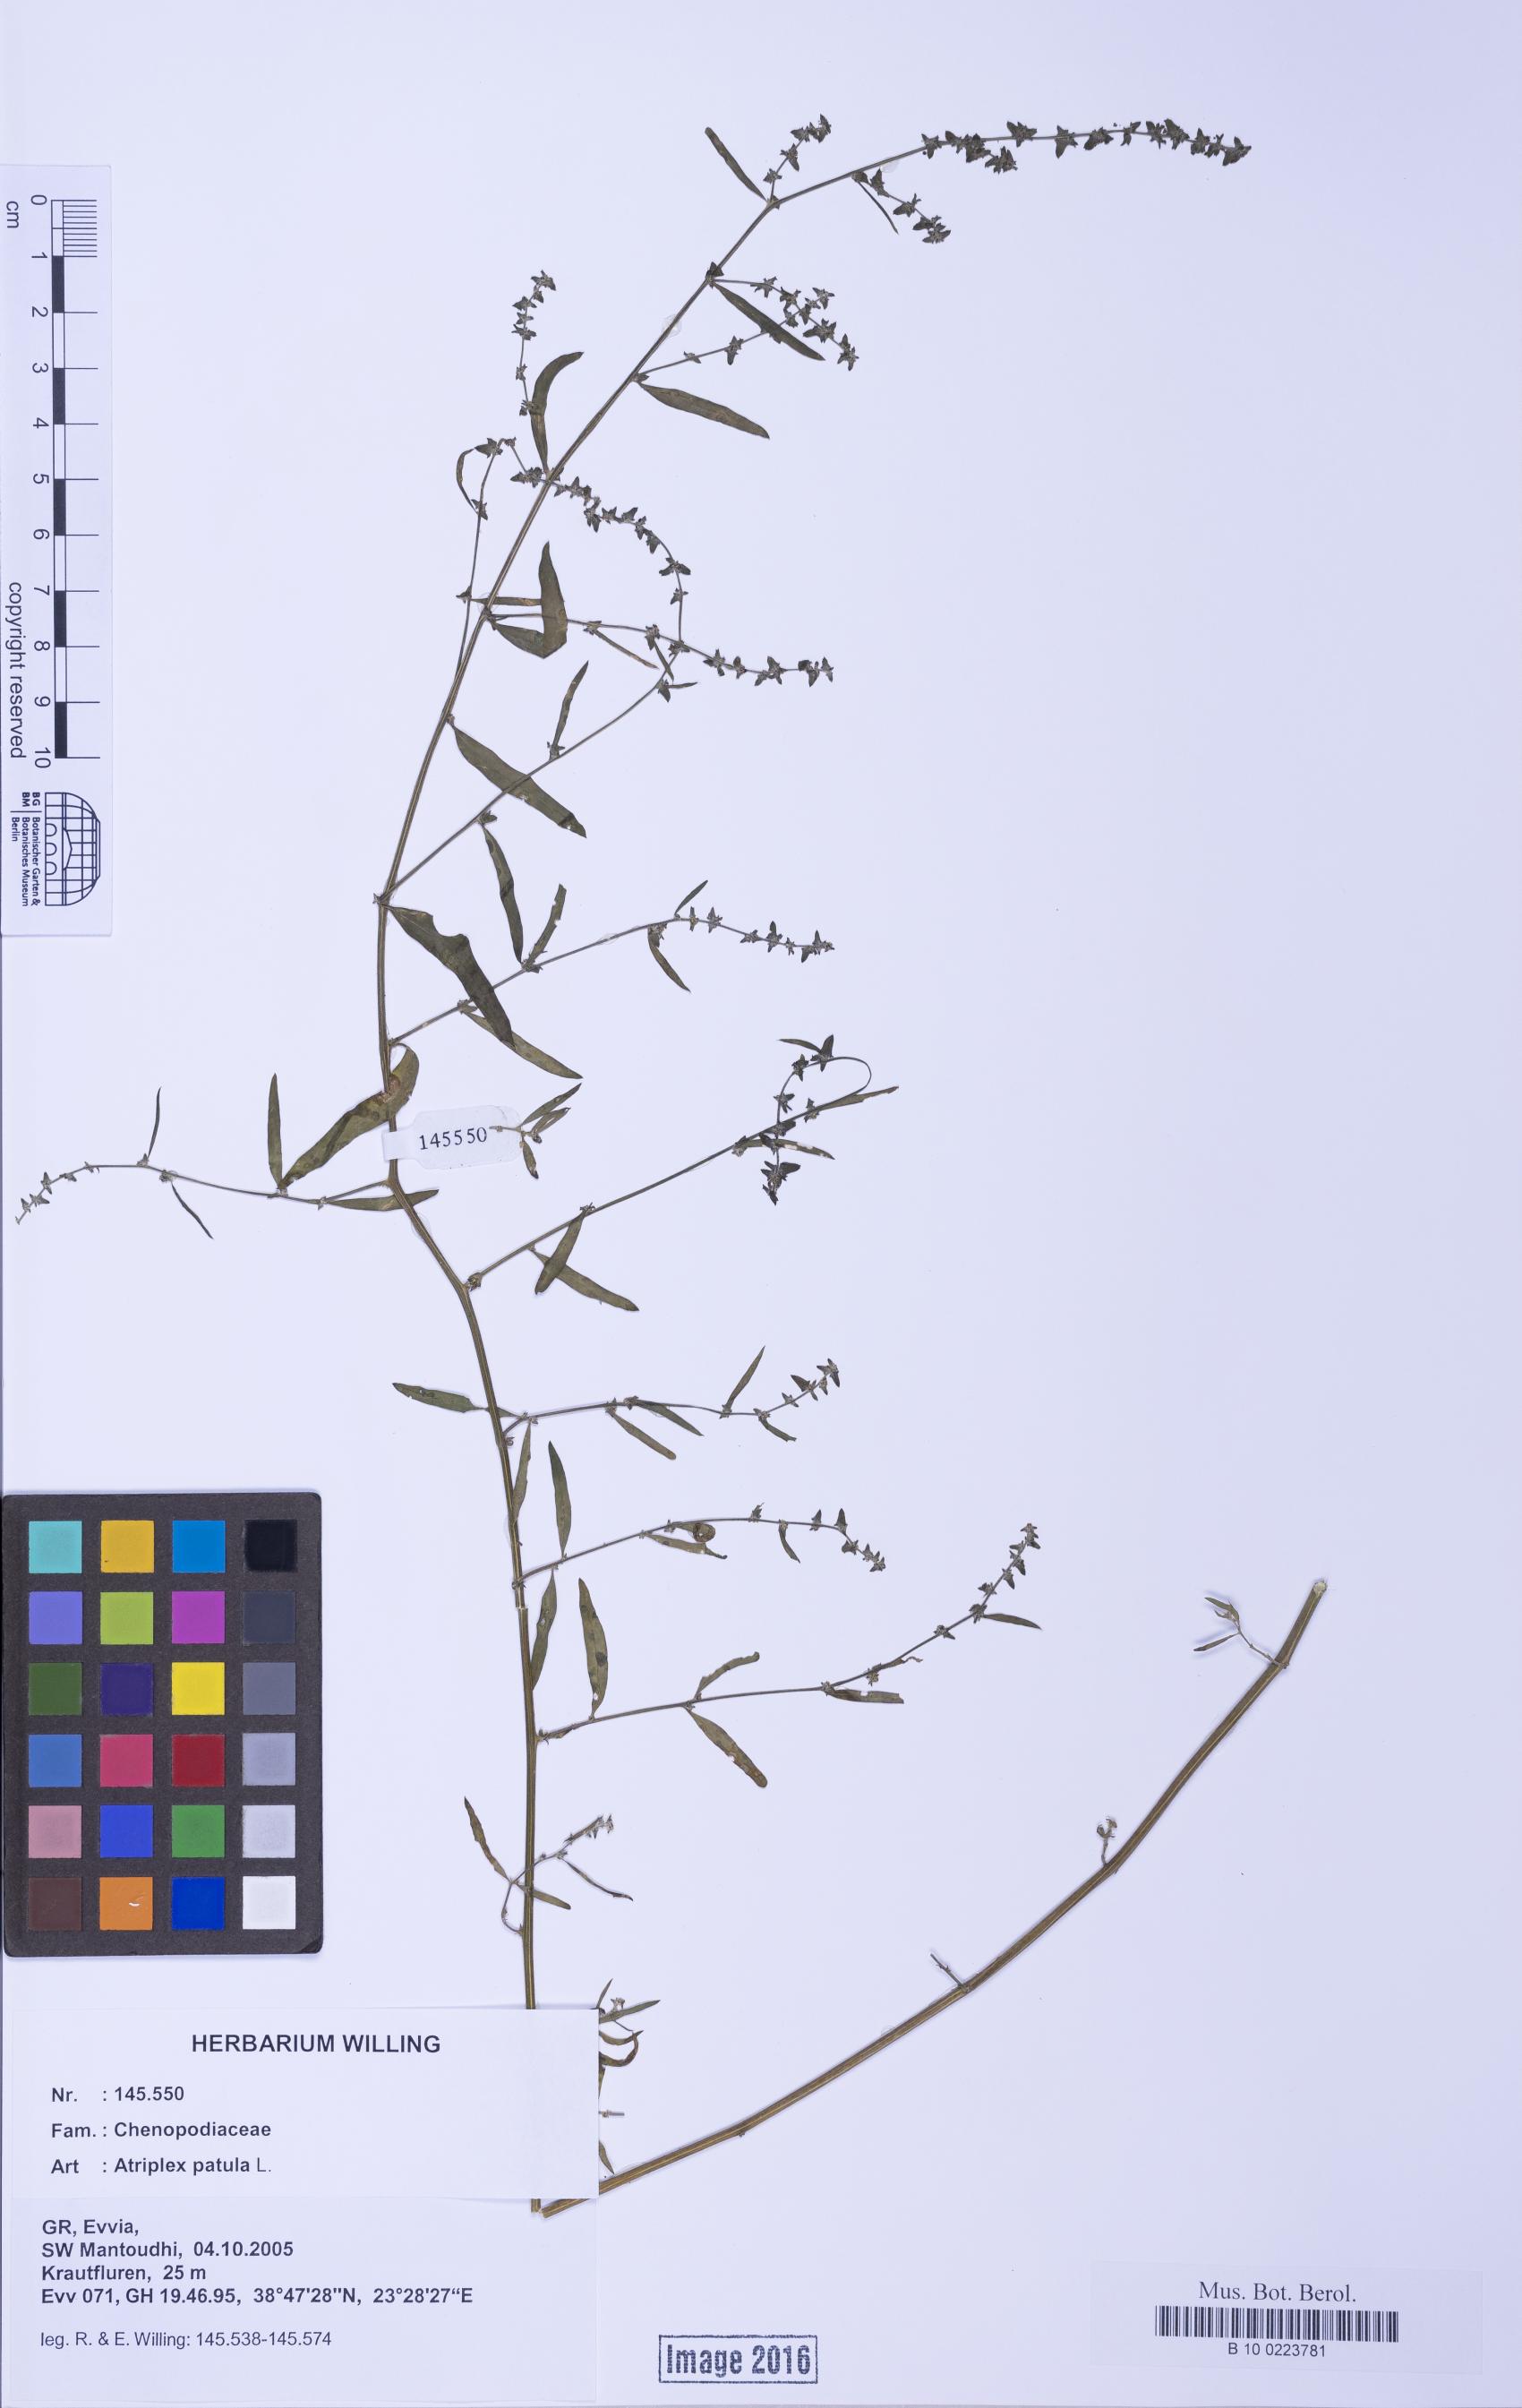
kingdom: Plantae
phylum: Tracheophyta
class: Magnoliopsida
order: Caryophyllales
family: Amaranthaceae
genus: Atriplex
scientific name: Atriplex patula
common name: Common orache
